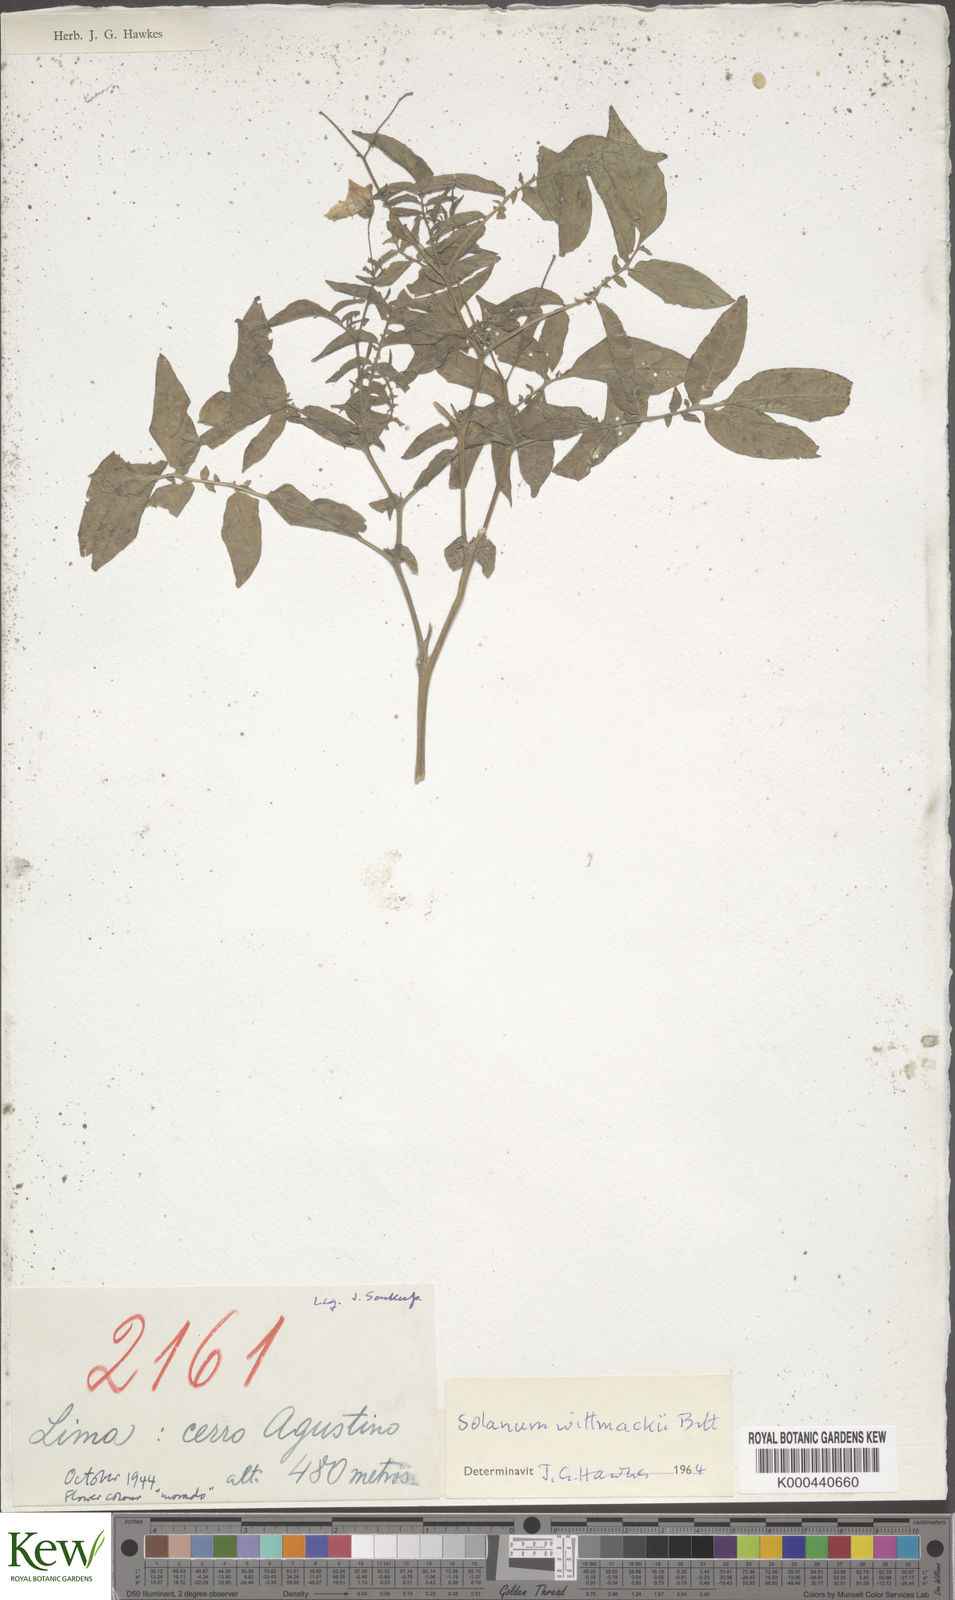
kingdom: Plantae
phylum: Tracheophyta
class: Magnoliopsida
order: Solanales
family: Solanaceae
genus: Solanum
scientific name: Solanum wittmackii
